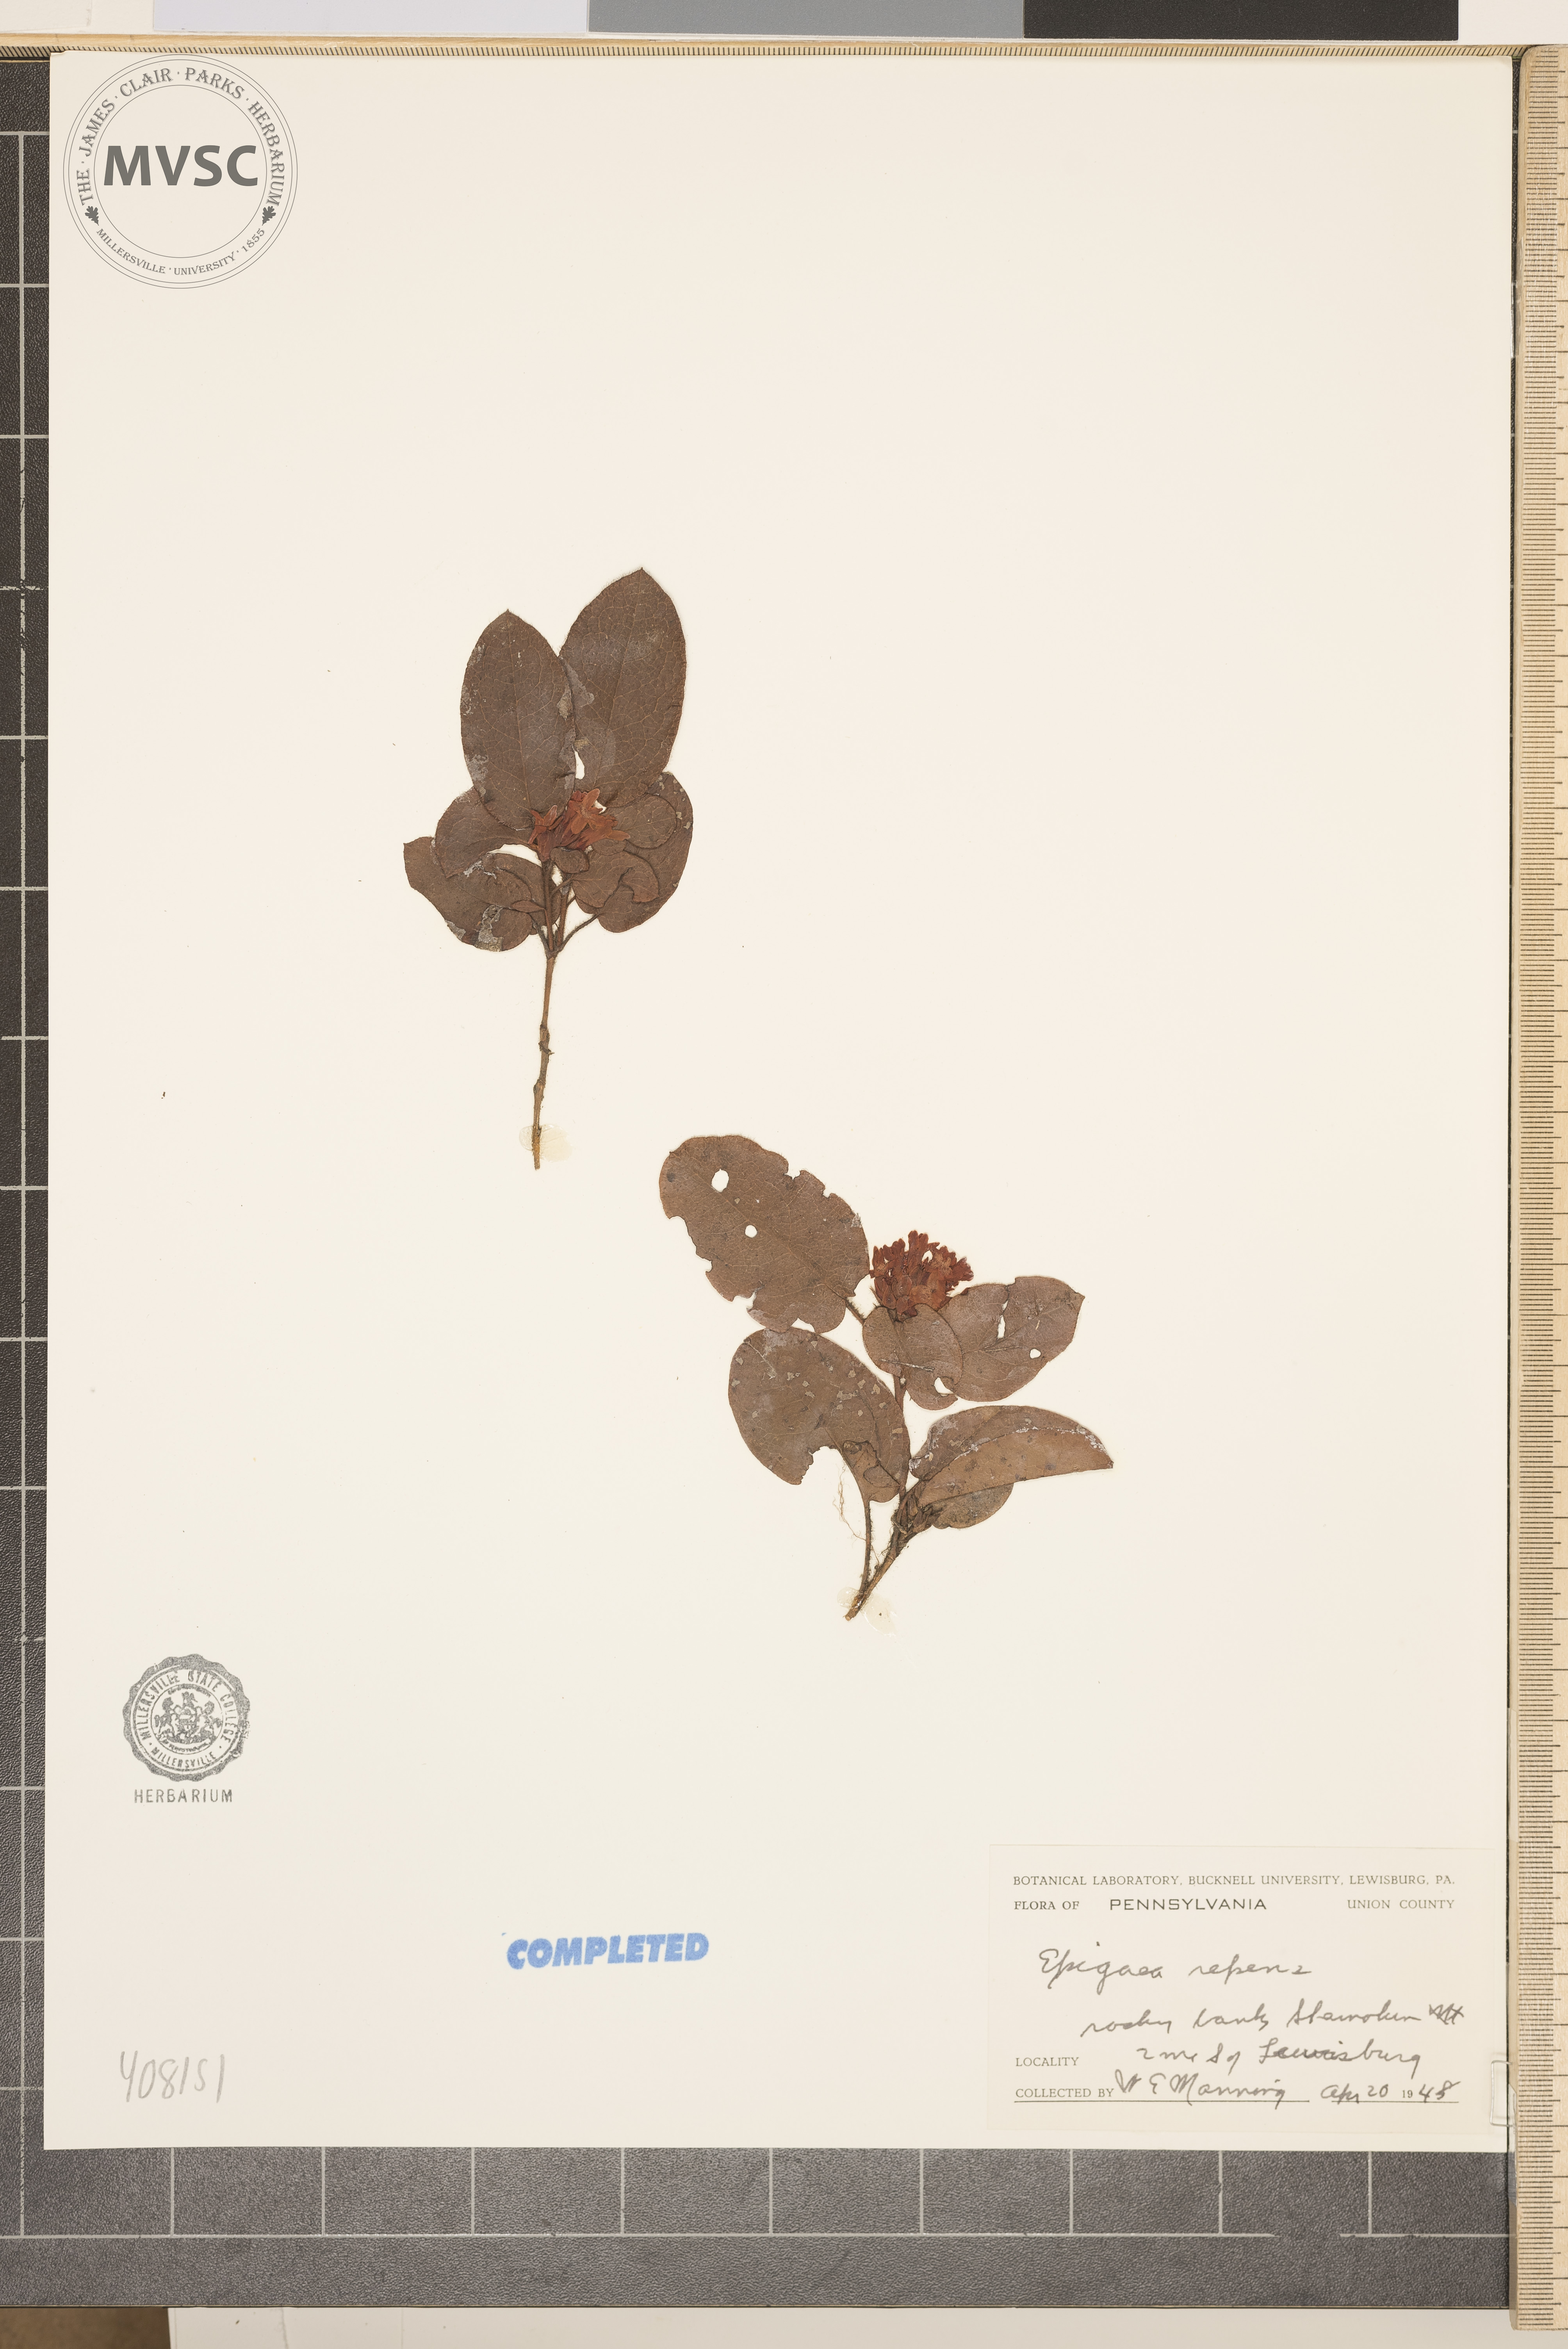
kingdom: Plantae
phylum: Tracheophyta
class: Magnoliopsida
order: Ericales
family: Ericaceae
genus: Epigaea
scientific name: Epigaea repens
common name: Gravelroot
